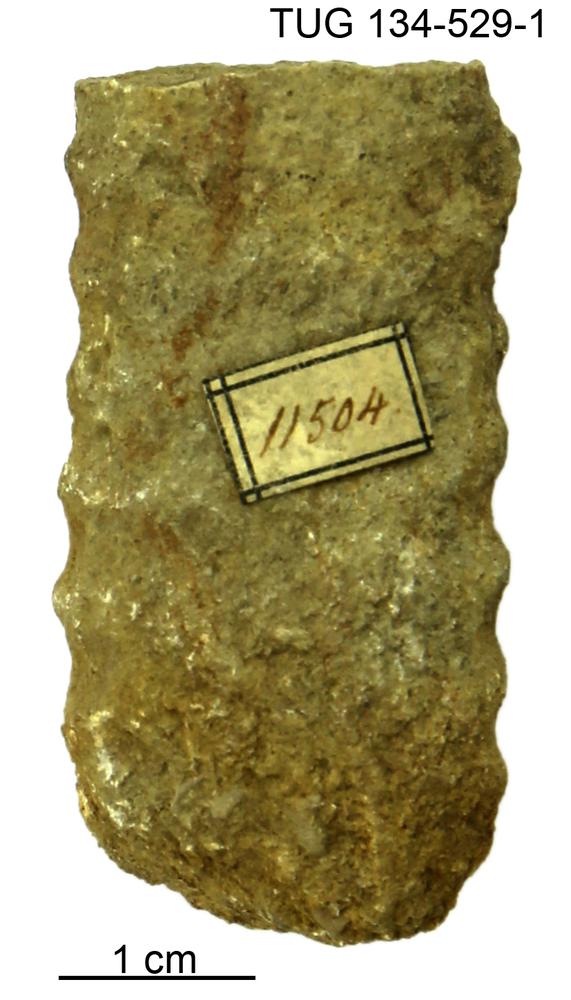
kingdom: Animalia
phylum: Mollusca
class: Cephalopoda
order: Orthocerida
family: Orthoceratidae
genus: Orthoceras
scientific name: Orthoceras
